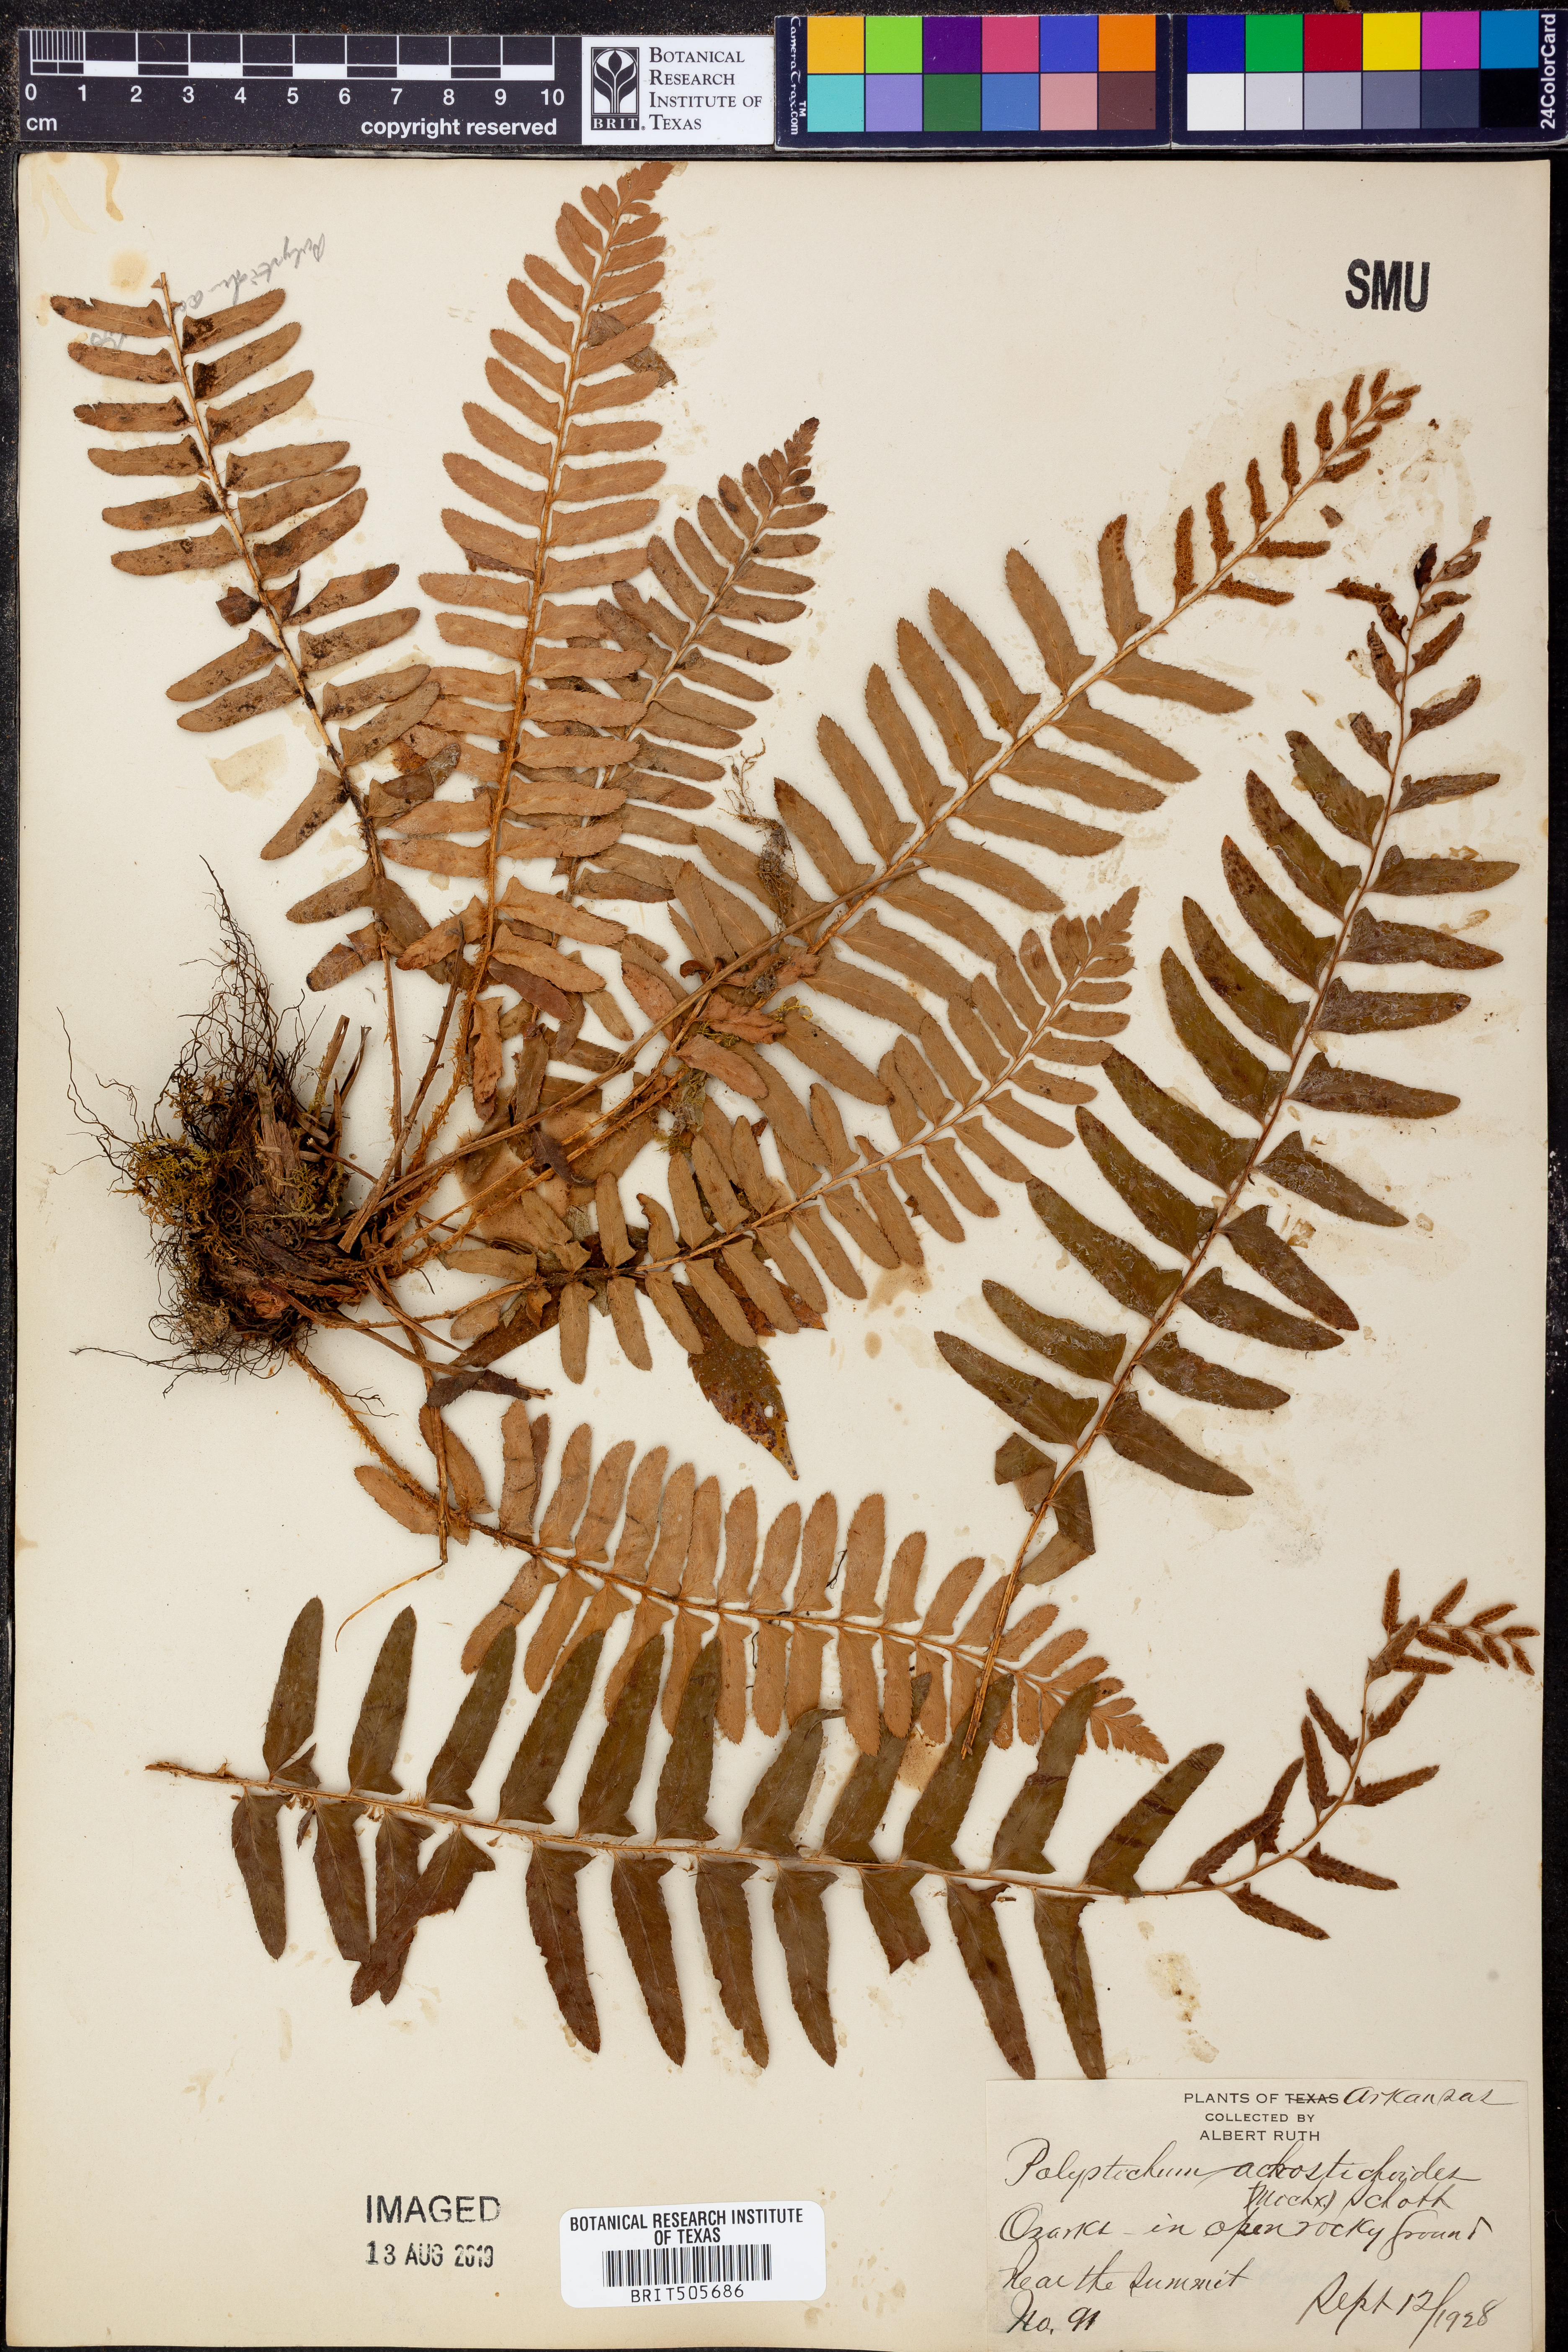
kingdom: Plantae
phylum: Tracheophyta
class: Polypodiopsida
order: Polypodiales
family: Dryopteridaceae
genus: Polystichum
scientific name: Polystichum acrostichoides
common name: Christmas fern
